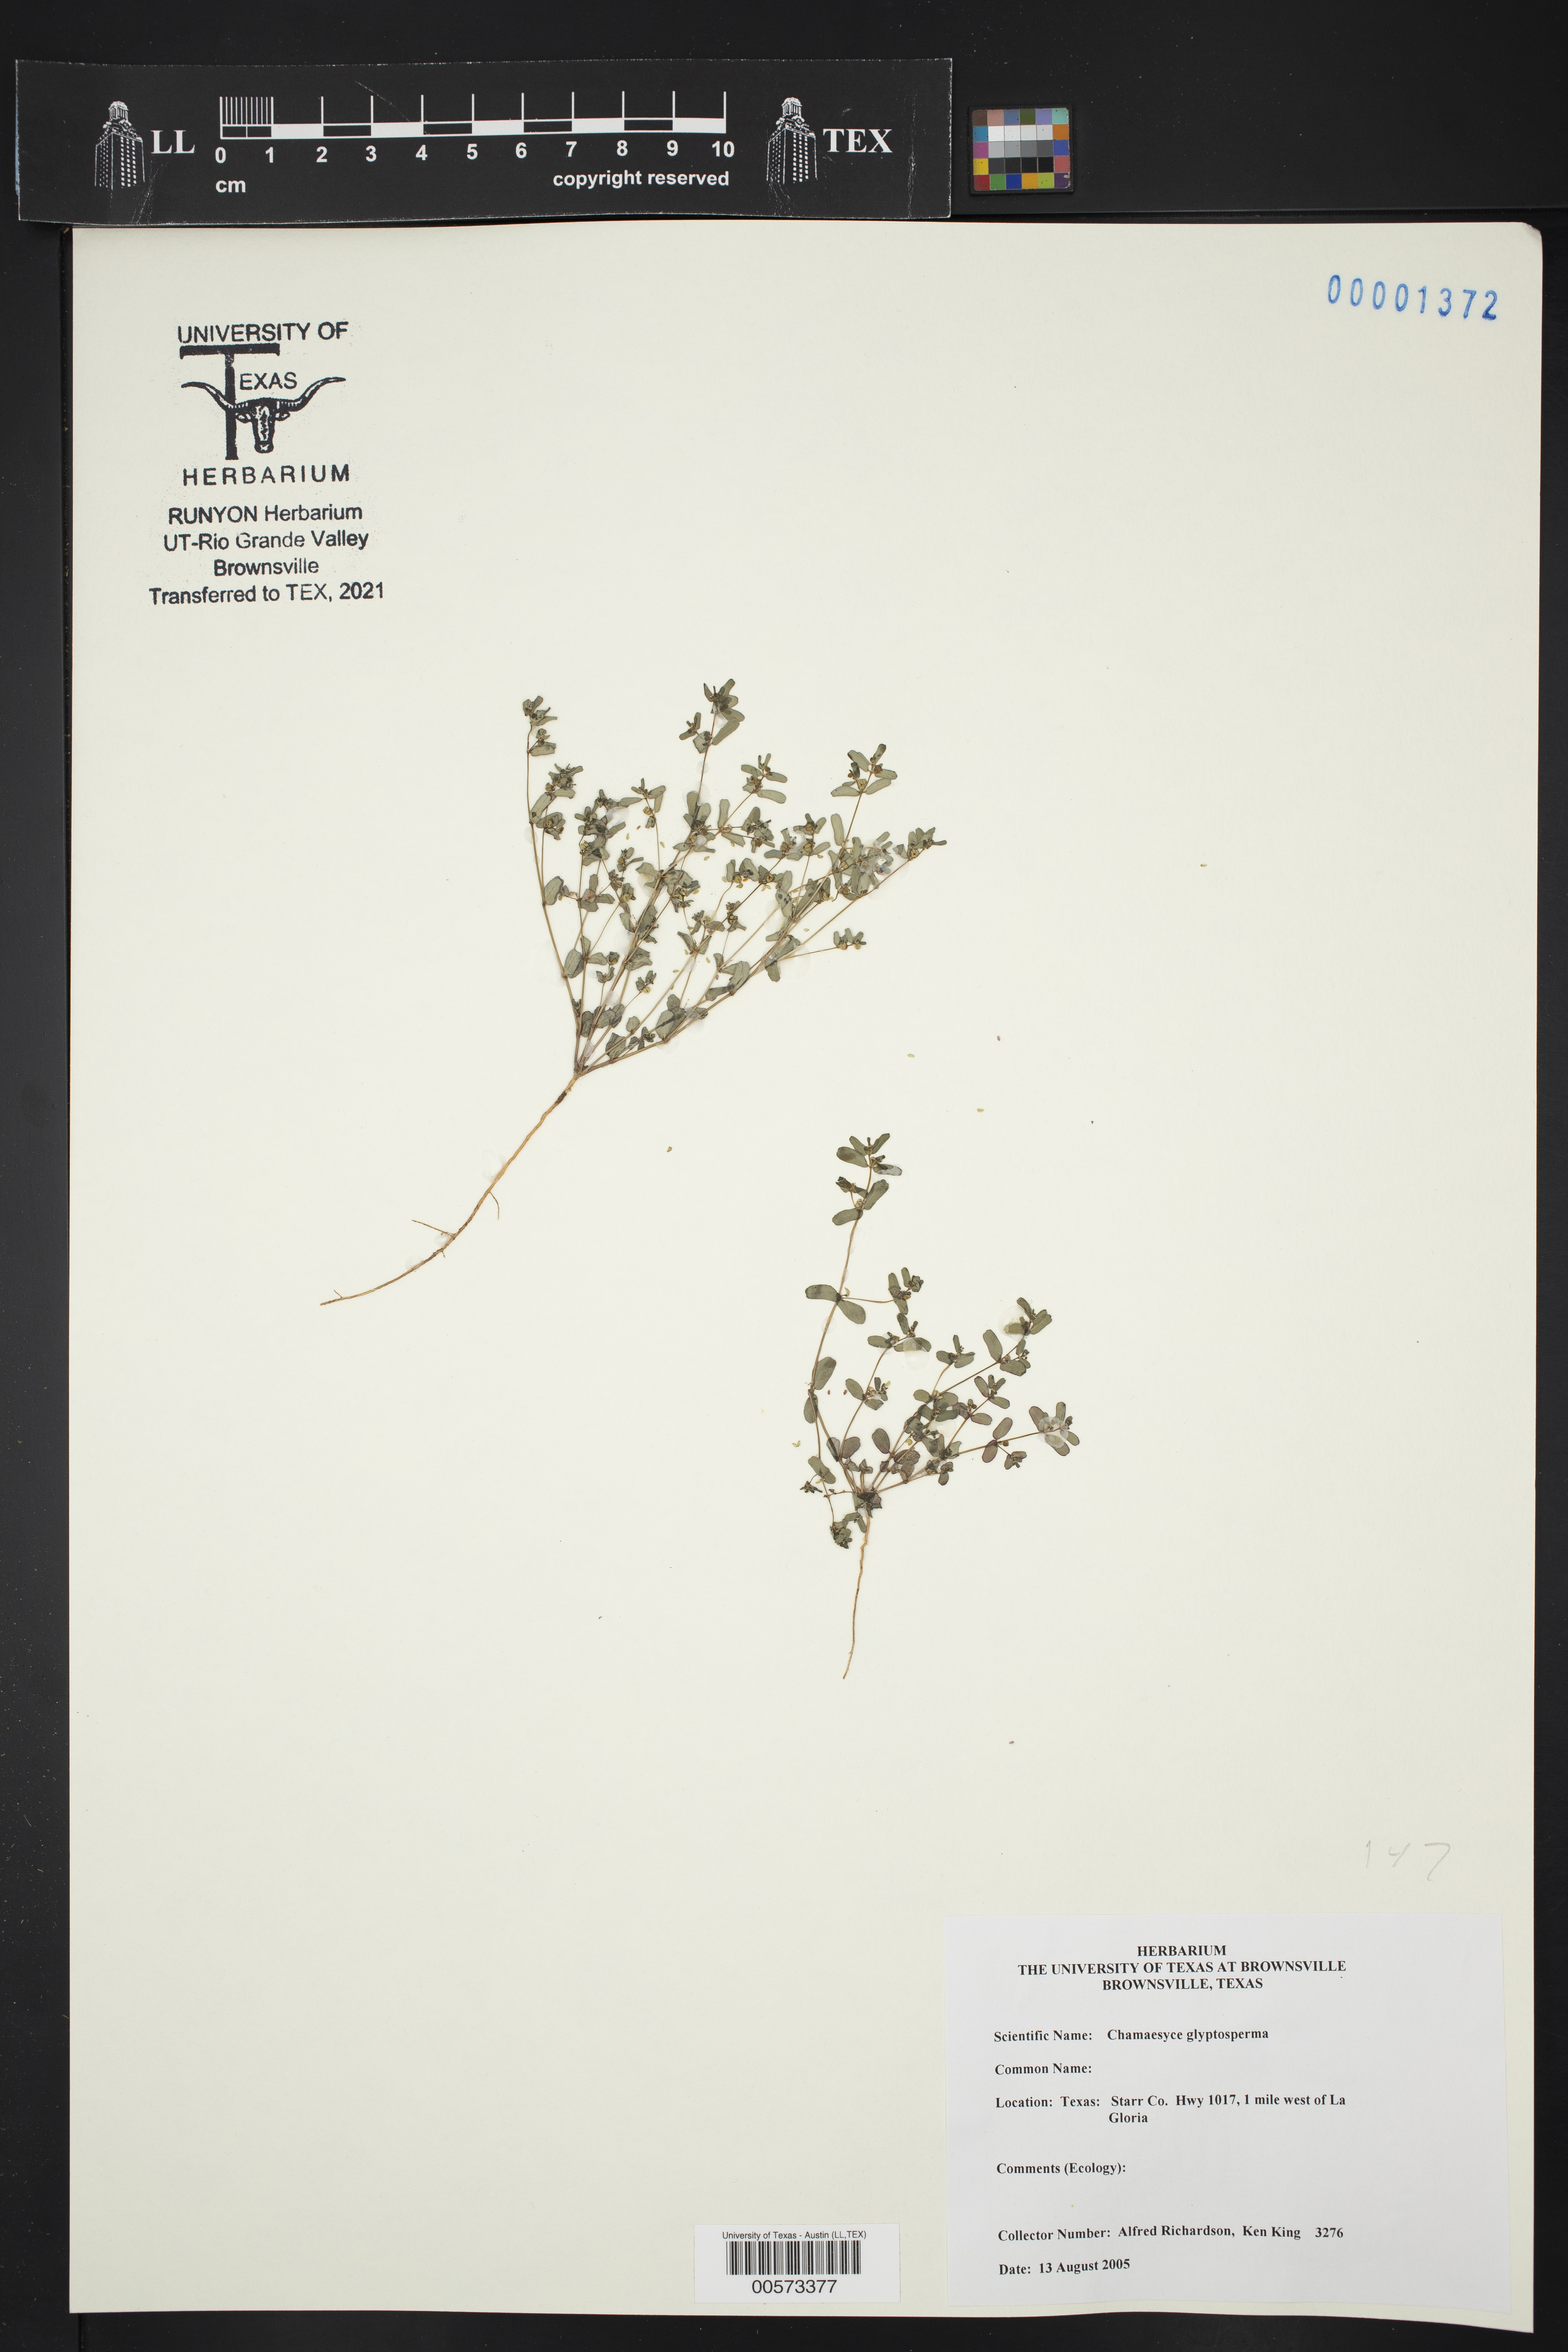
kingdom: Plantae
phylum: Tracheophyta
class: Magnoliopsida
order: Malpighiales
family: Euphorbiaceae
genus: Euphorbia
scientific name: Euphorbia glyptosperma
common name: Corrugate-seeded spurge
